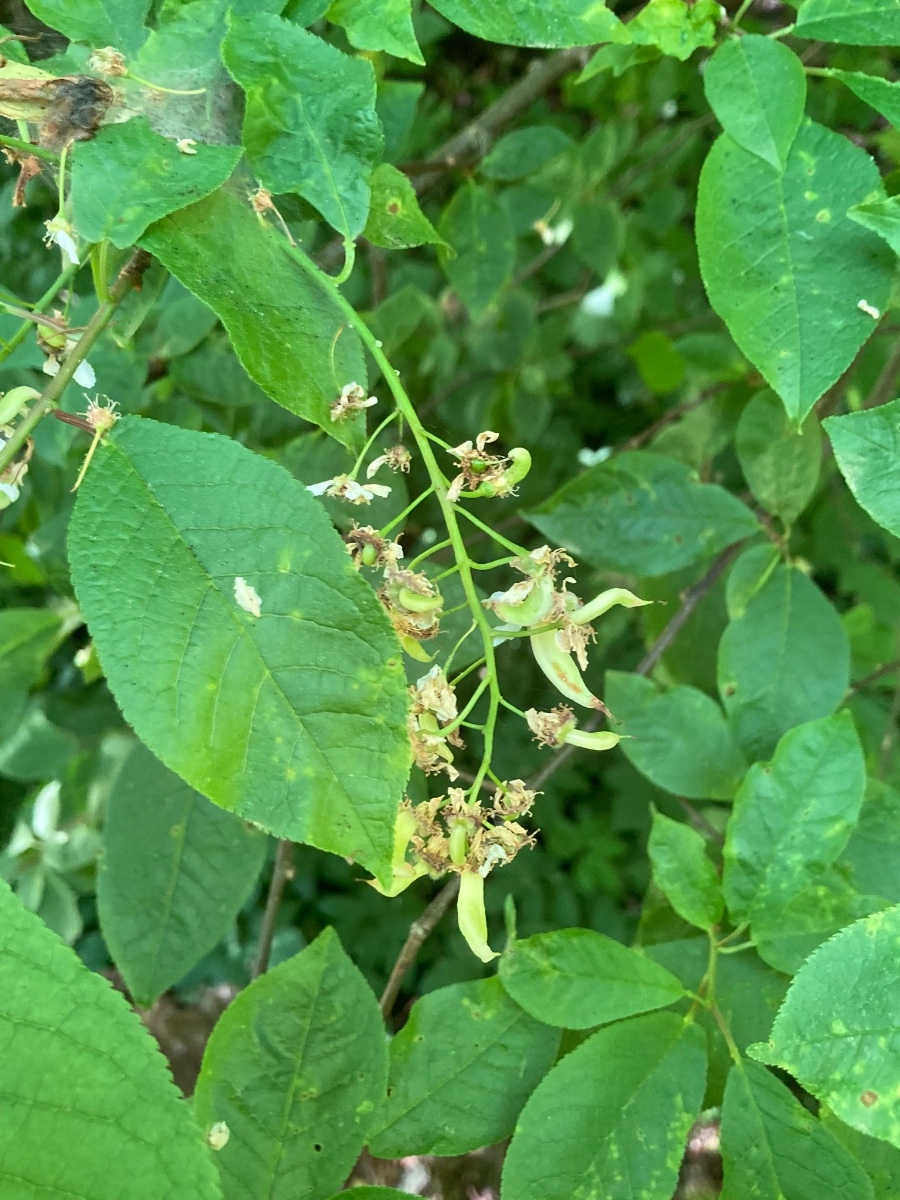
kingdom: Fungi
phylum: Ascomycota
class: Taphrinomycetes
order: Taphrinales
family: Taphrinaceae
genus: Taphrina
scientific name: Taphrina padi
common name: Bird cherry pocket
